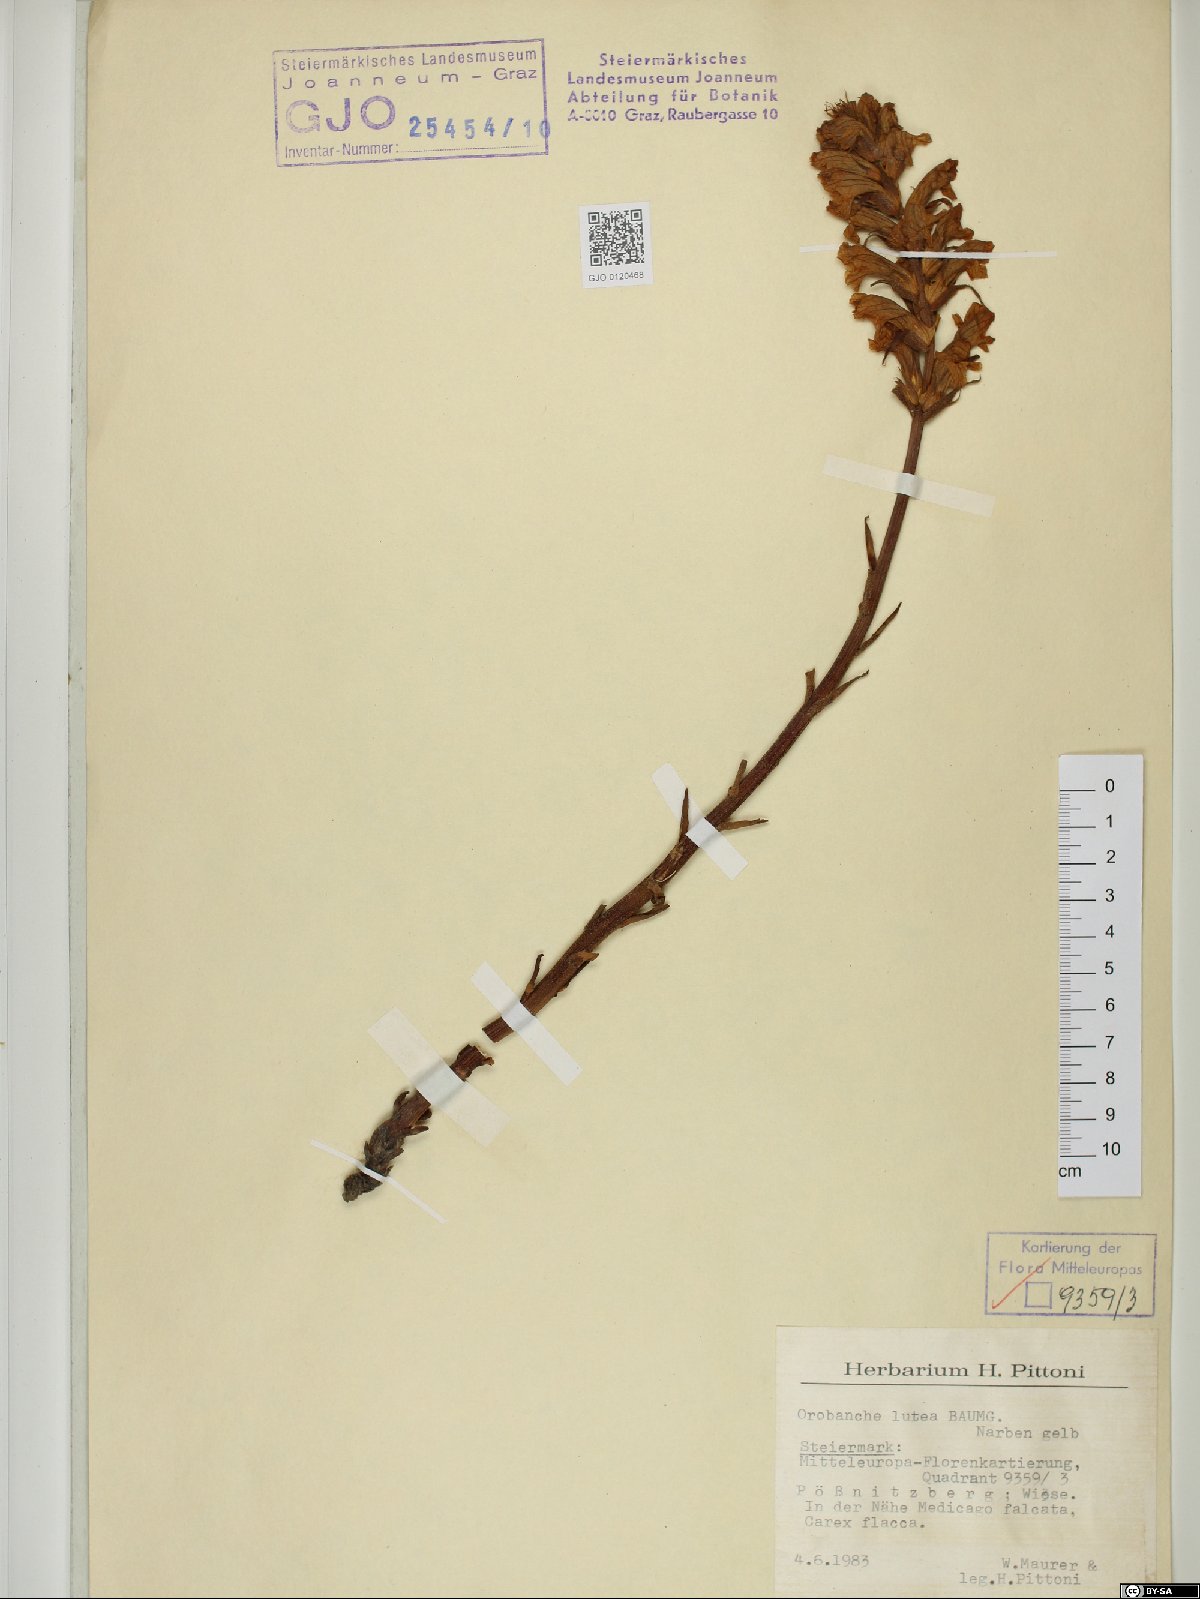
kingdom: Plantae
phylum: Tracheophyta
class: Magnoliopsida
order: Lamiales
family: Orobanchaceae
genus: Orobanche
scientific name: Orobanche lutea
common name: Yellow broomrape
